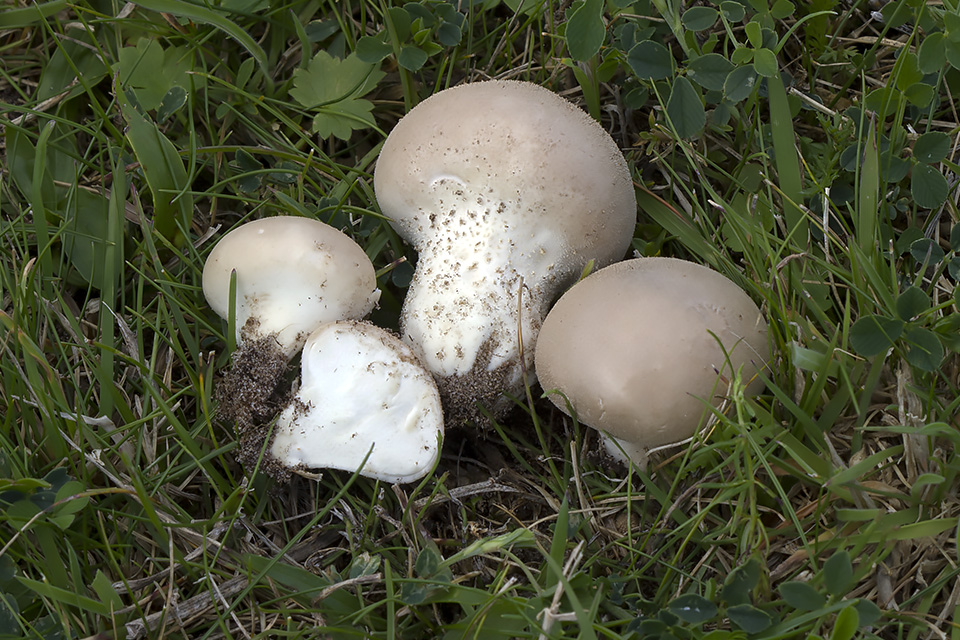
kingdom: Fungi
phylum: Basidiomycota
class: Agaricomycetes
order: Agaricales
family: Lycoperdaceae
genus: Lycoperdon
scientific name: Lycoperdon lividum
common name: mark-støvbold
